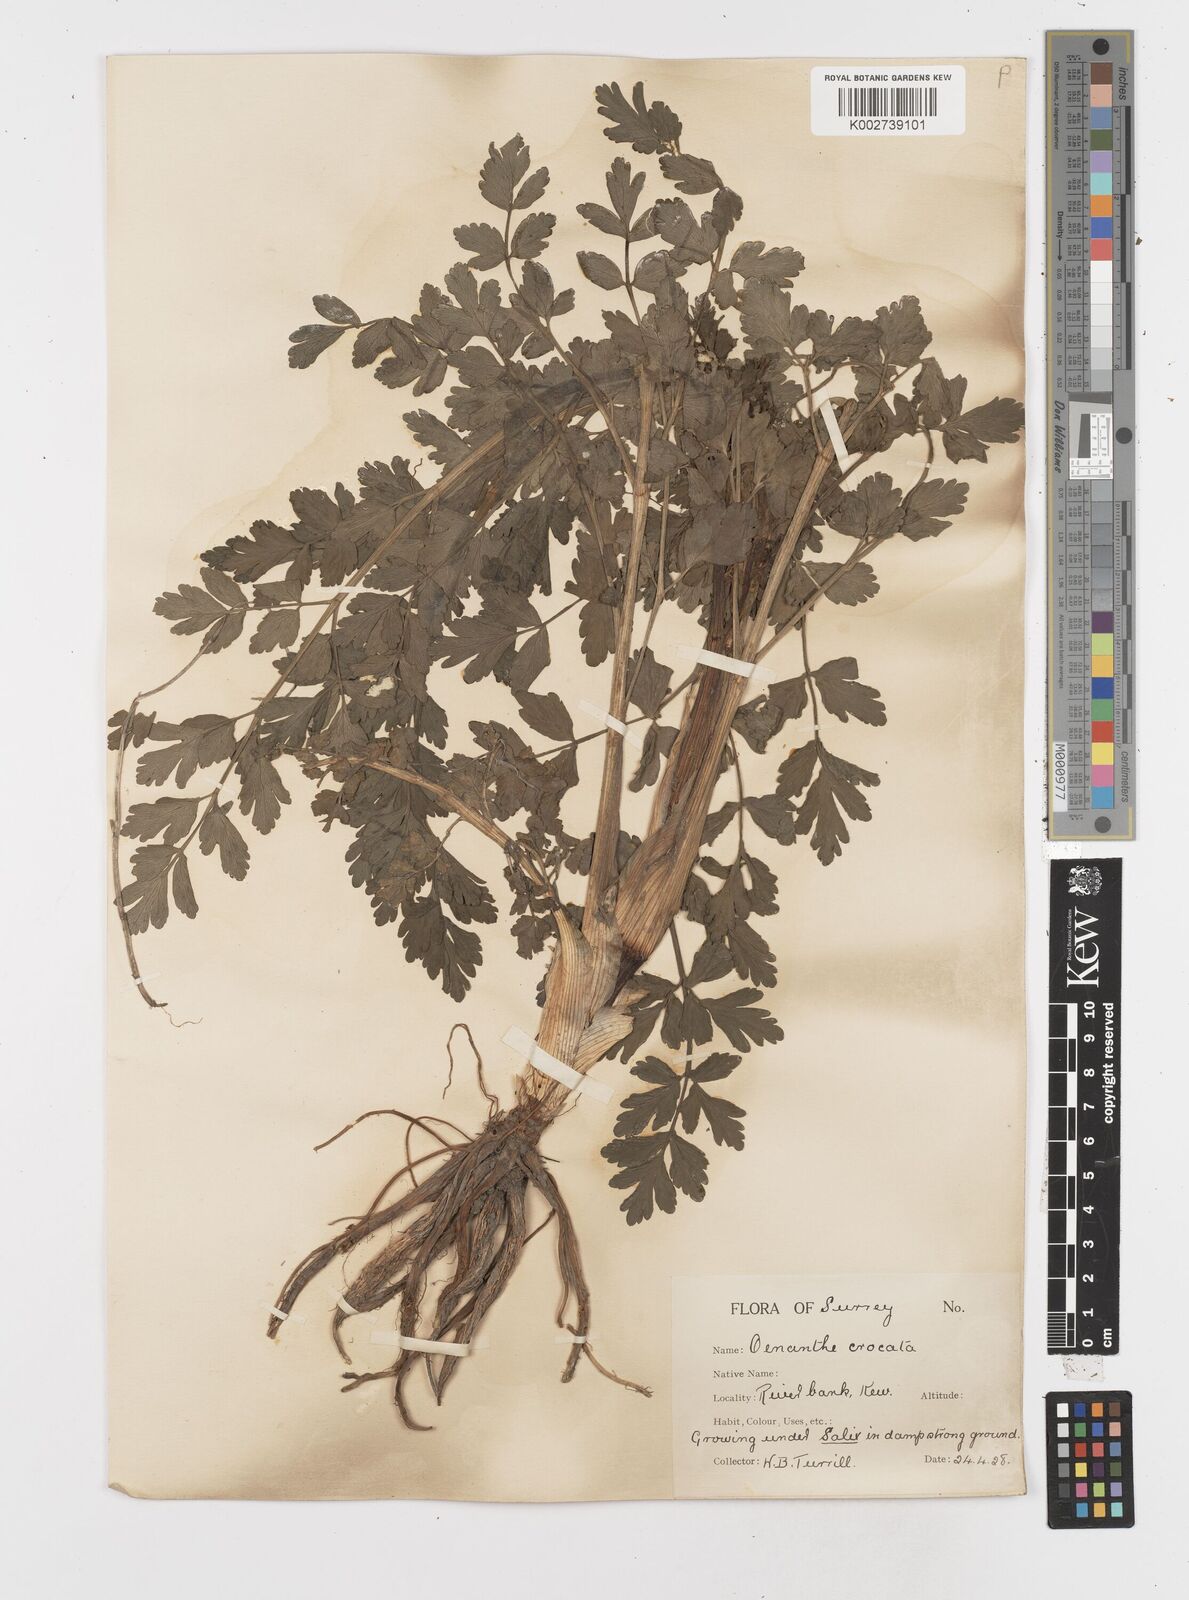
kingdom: Plantae
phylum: Tracheophyta
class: Magnoliopsida
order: Apiales
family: Apiaceae
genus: Oenanthe
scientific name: Oenanthe crocata
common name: Hemlock water-dropwort
